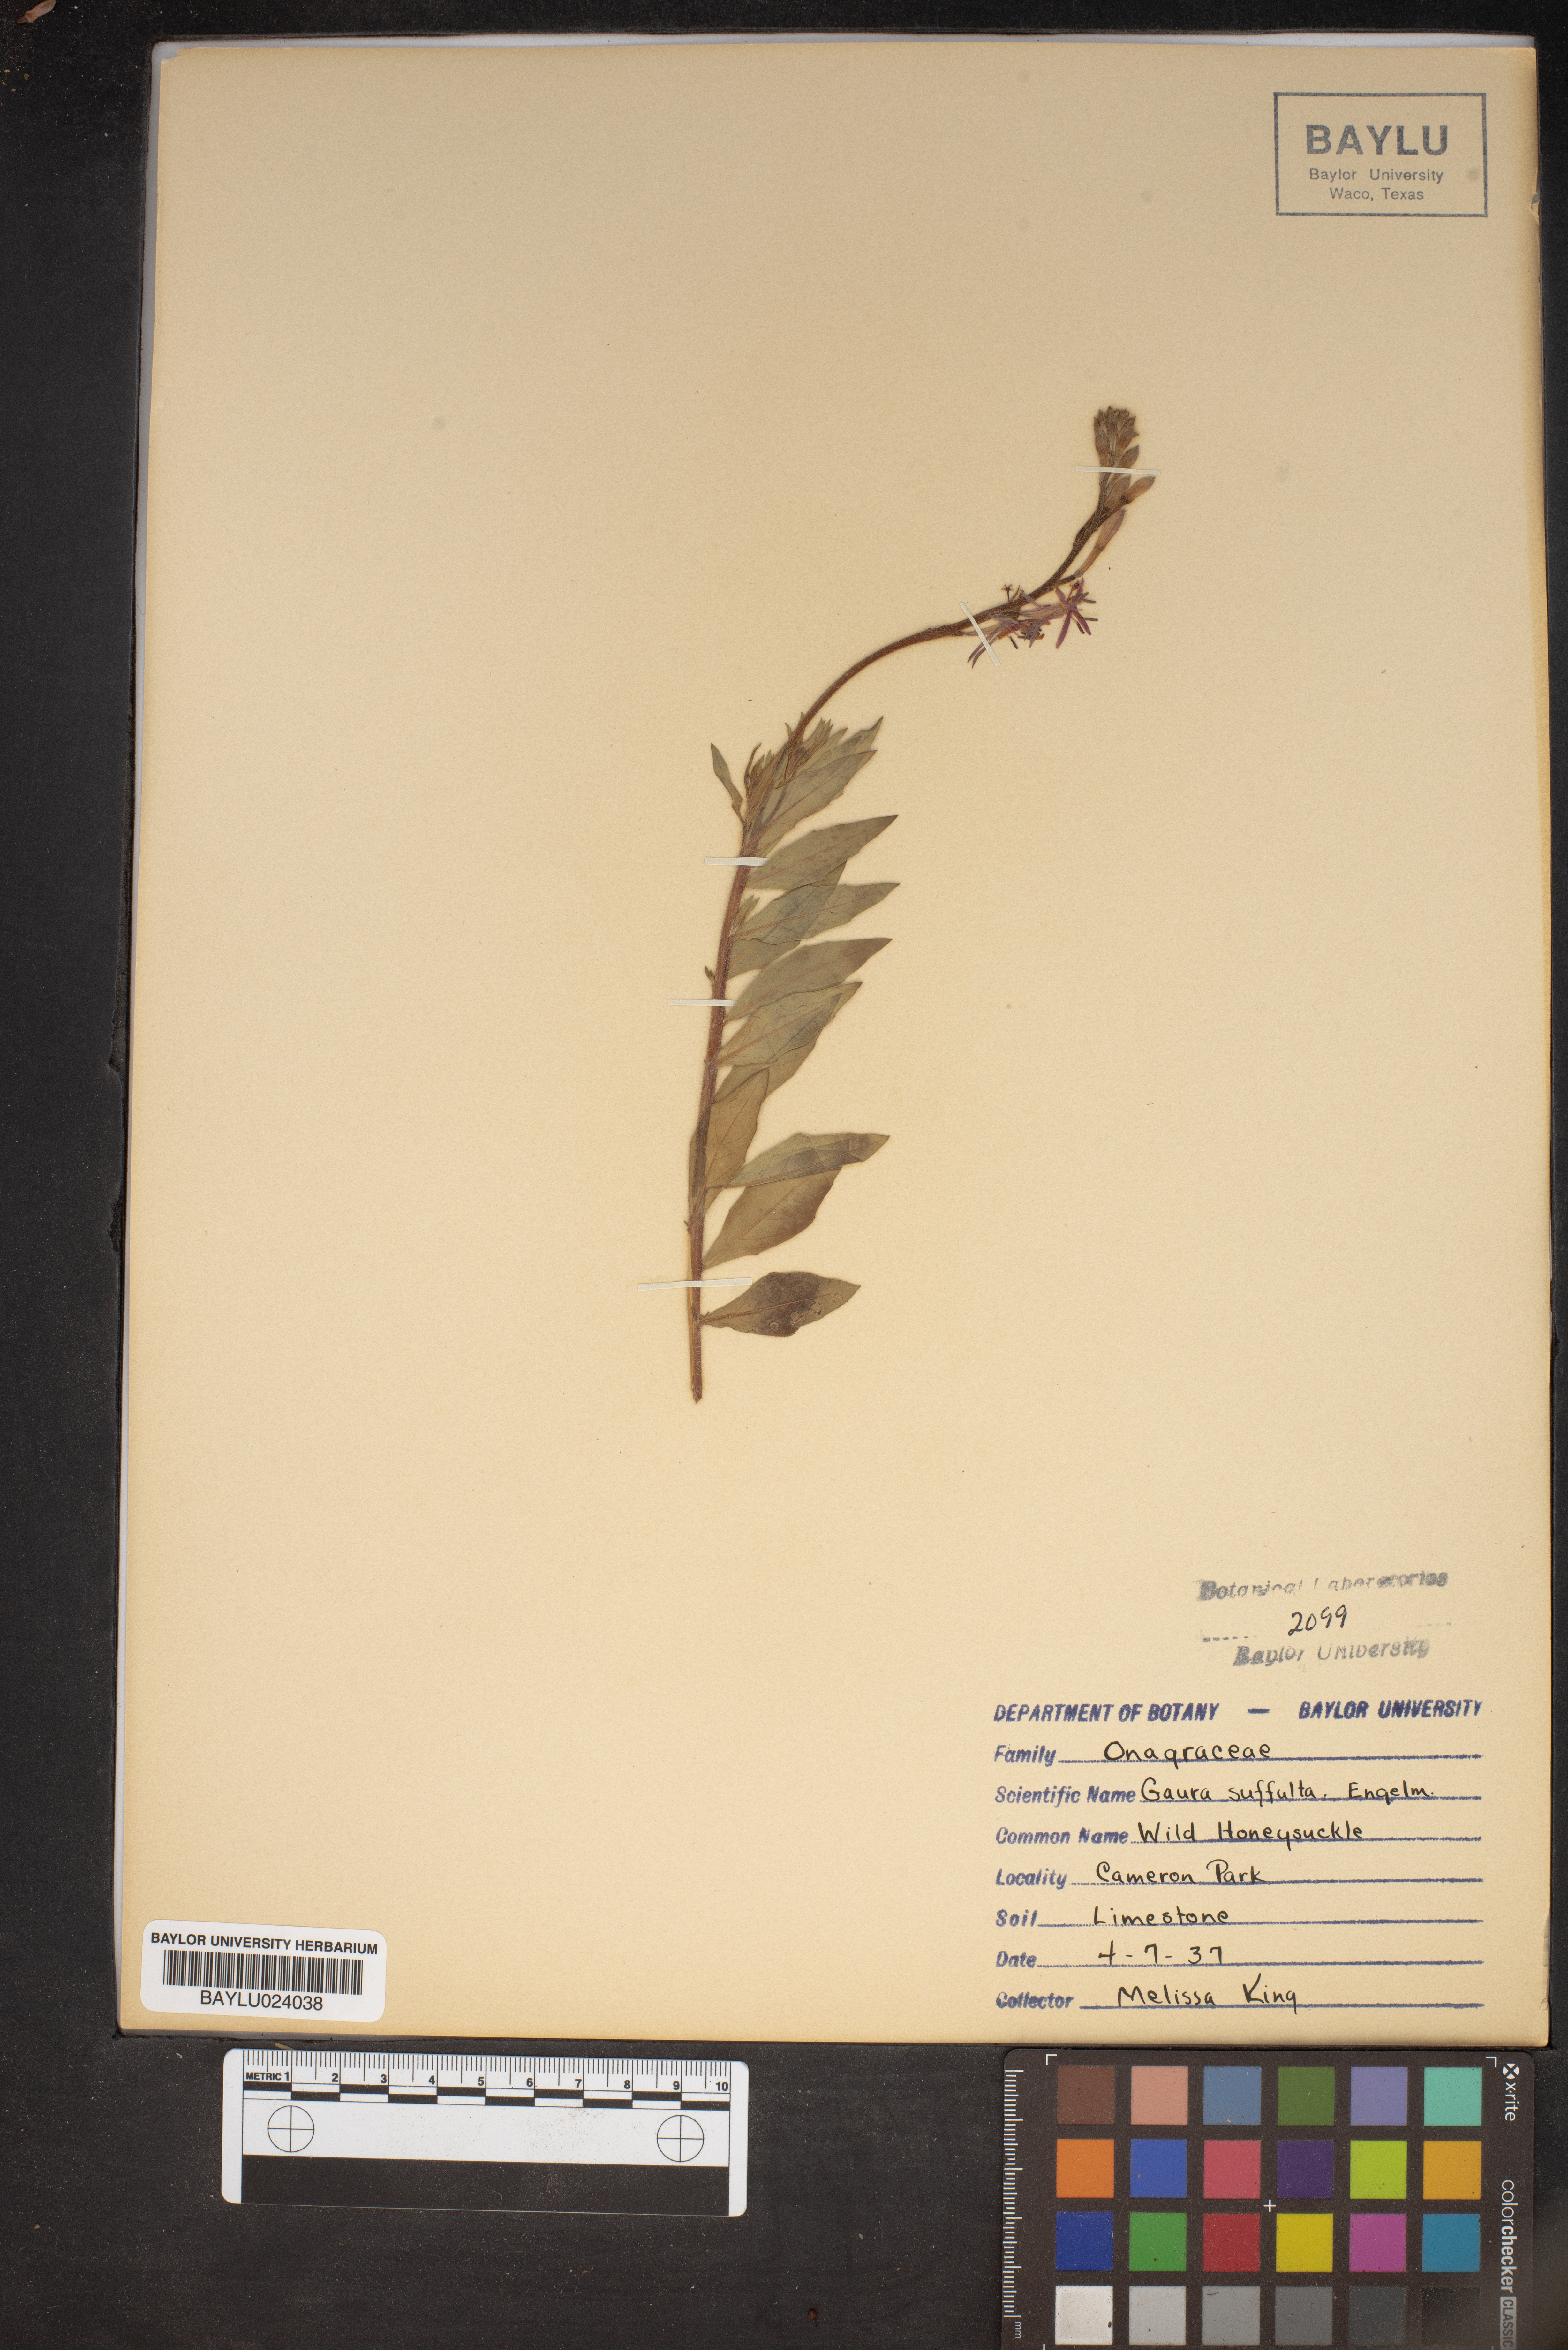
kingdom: Plantae
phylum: Tracheophyta
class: Magnoliopsida
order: Myrtales
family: Onagraceae
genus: Oenothera
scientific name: Oenothera Gaura suffulta
